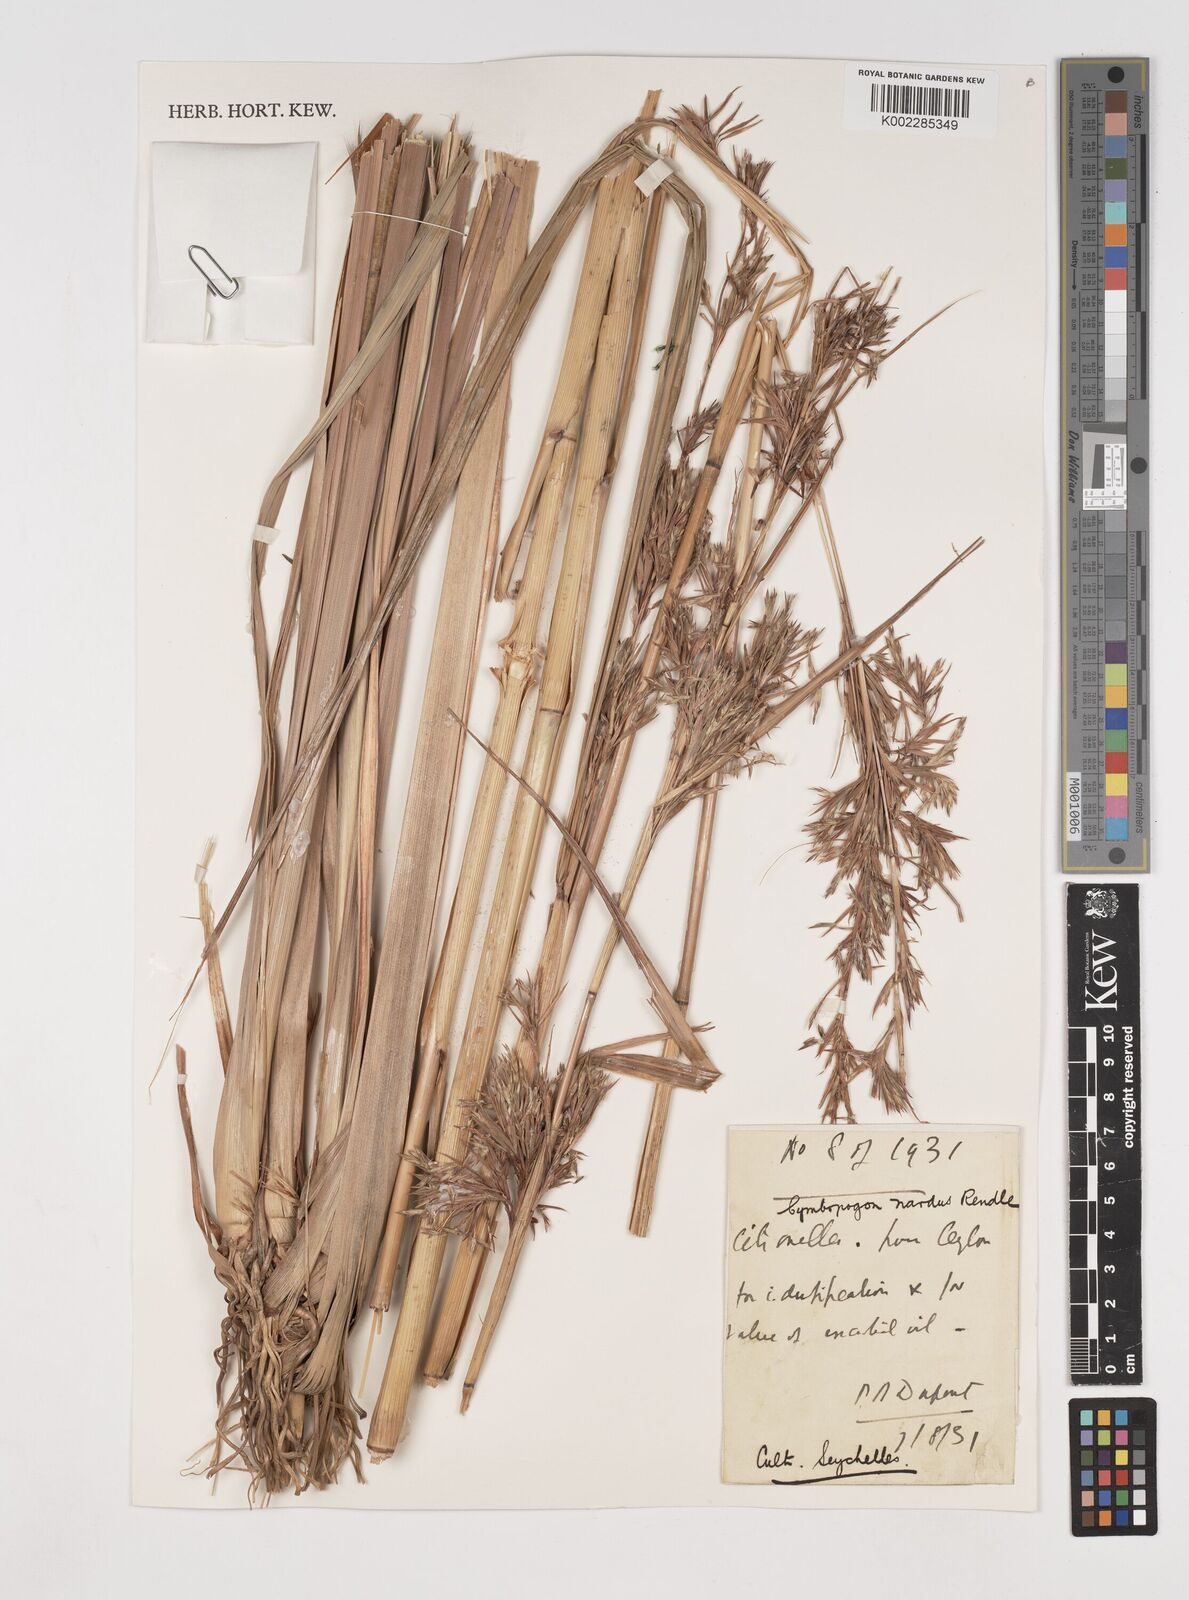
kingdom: Plantae
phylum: Tracheophyta
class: Liliopsida
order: Poales
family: Poaceae
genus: Cymbopogon
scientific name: Cymbopogon nardus
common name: Giant turpentine grass
